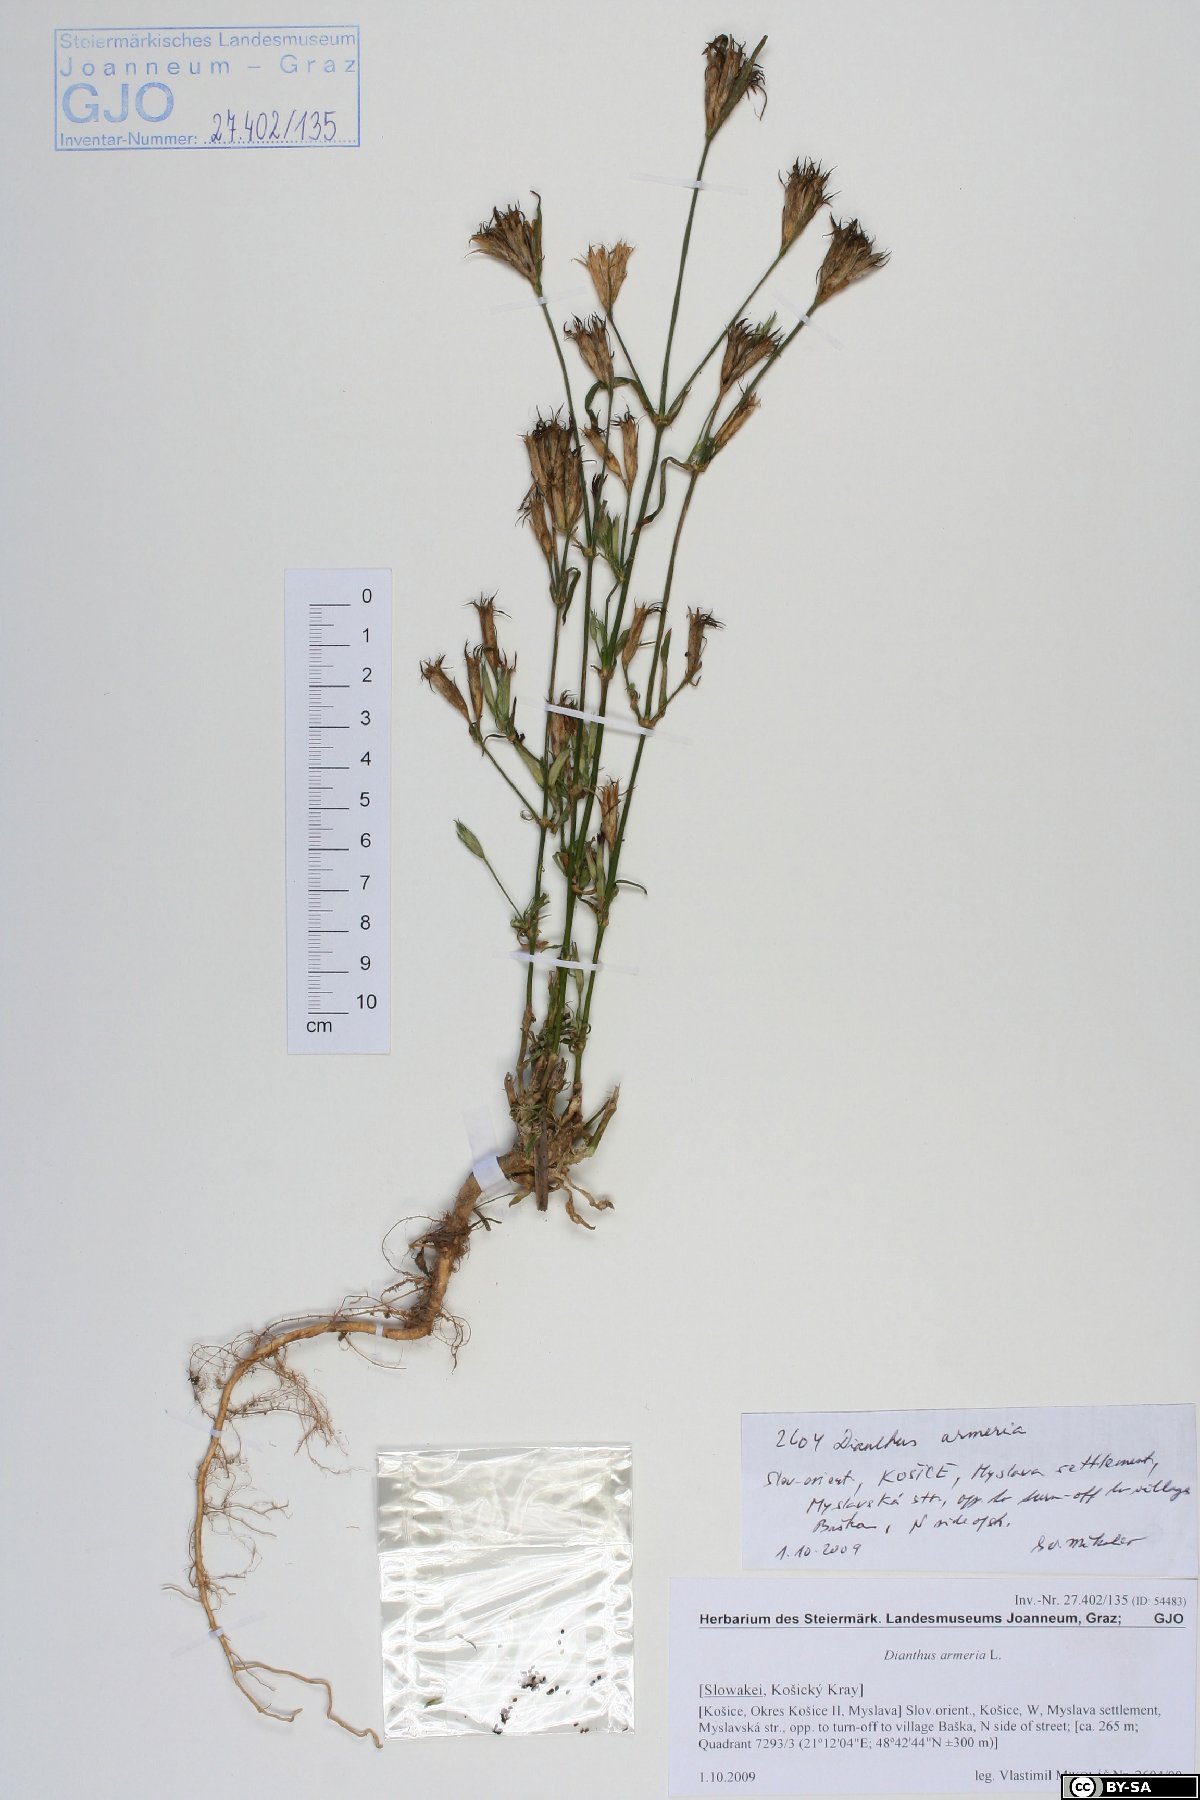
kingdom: Plantae
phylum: Tracheophyta
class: Magnoliopsida
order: Caryophyllales
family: Caryophyllaceae
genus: Dianthus
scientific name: Dianthus armeria
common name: Deptford pink
